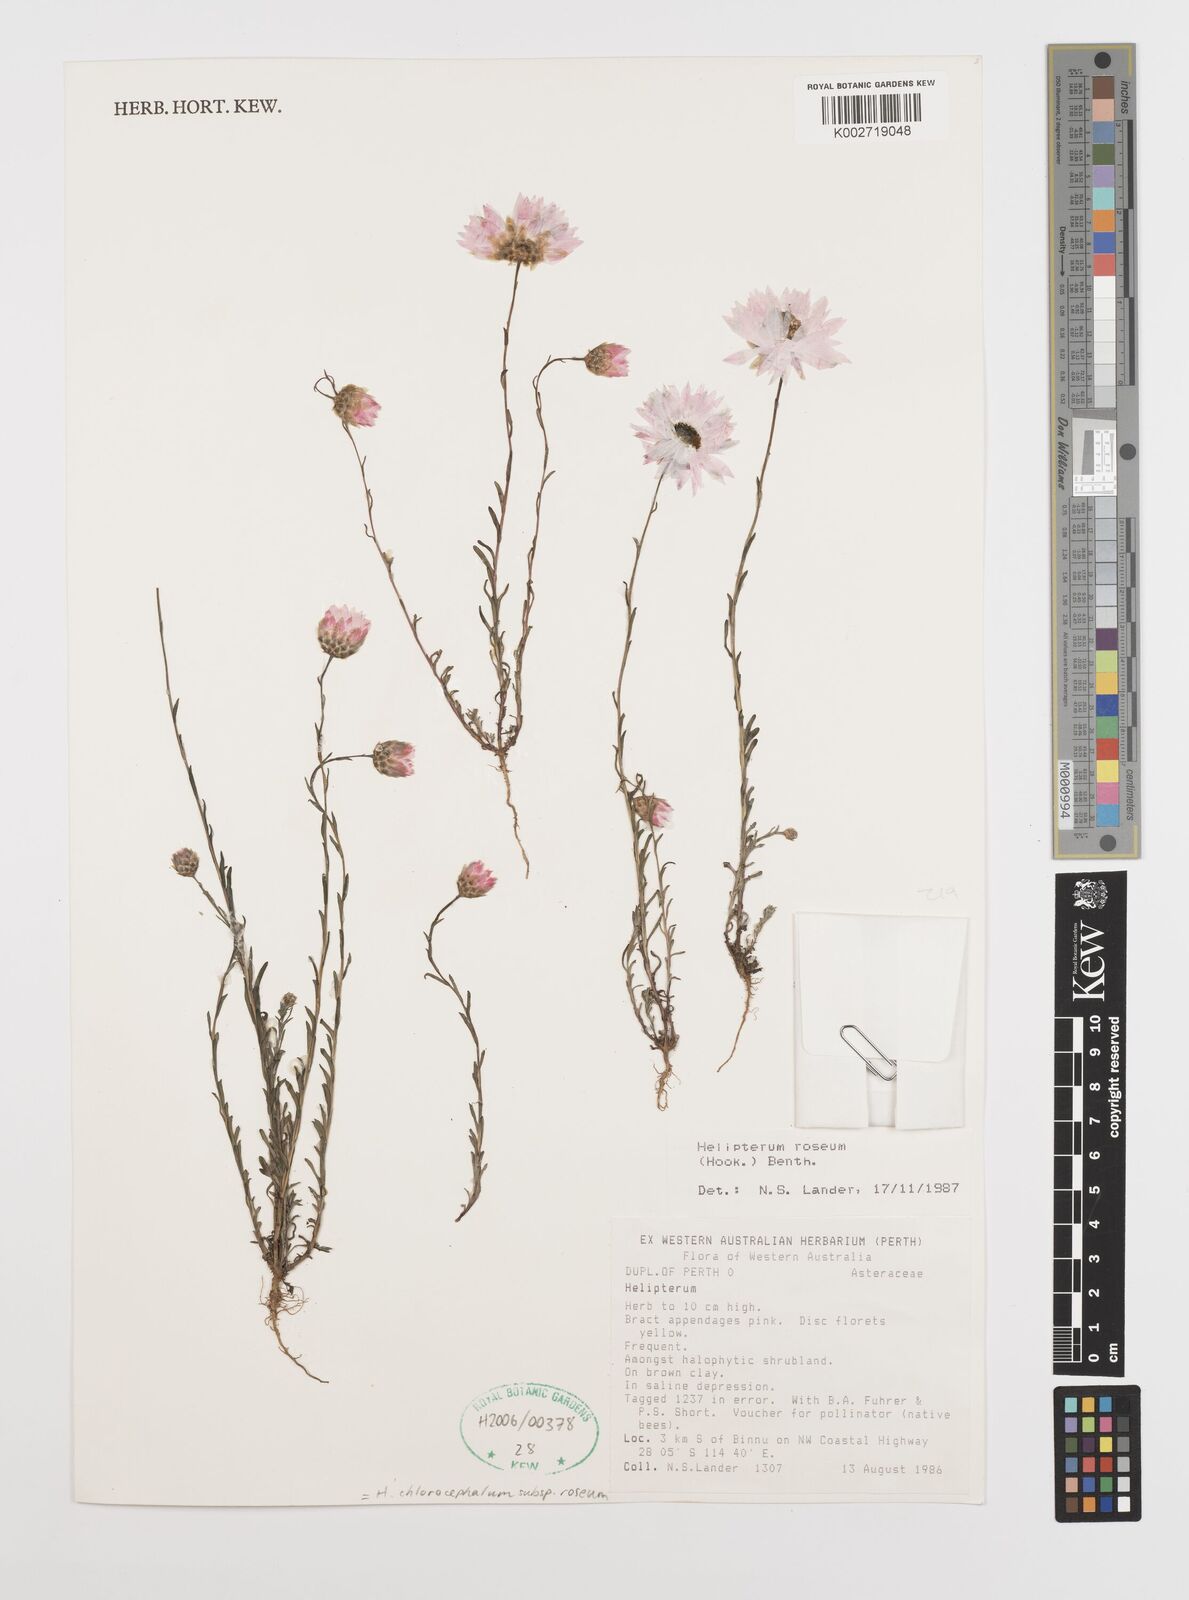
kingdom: Plantae
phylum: Tracheophyta
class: Magnoliopsida
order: Asterales
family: Asteraceae
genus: Rhodanthe
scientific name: Rhodanthe chlorocephala
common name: Rosy sunray
